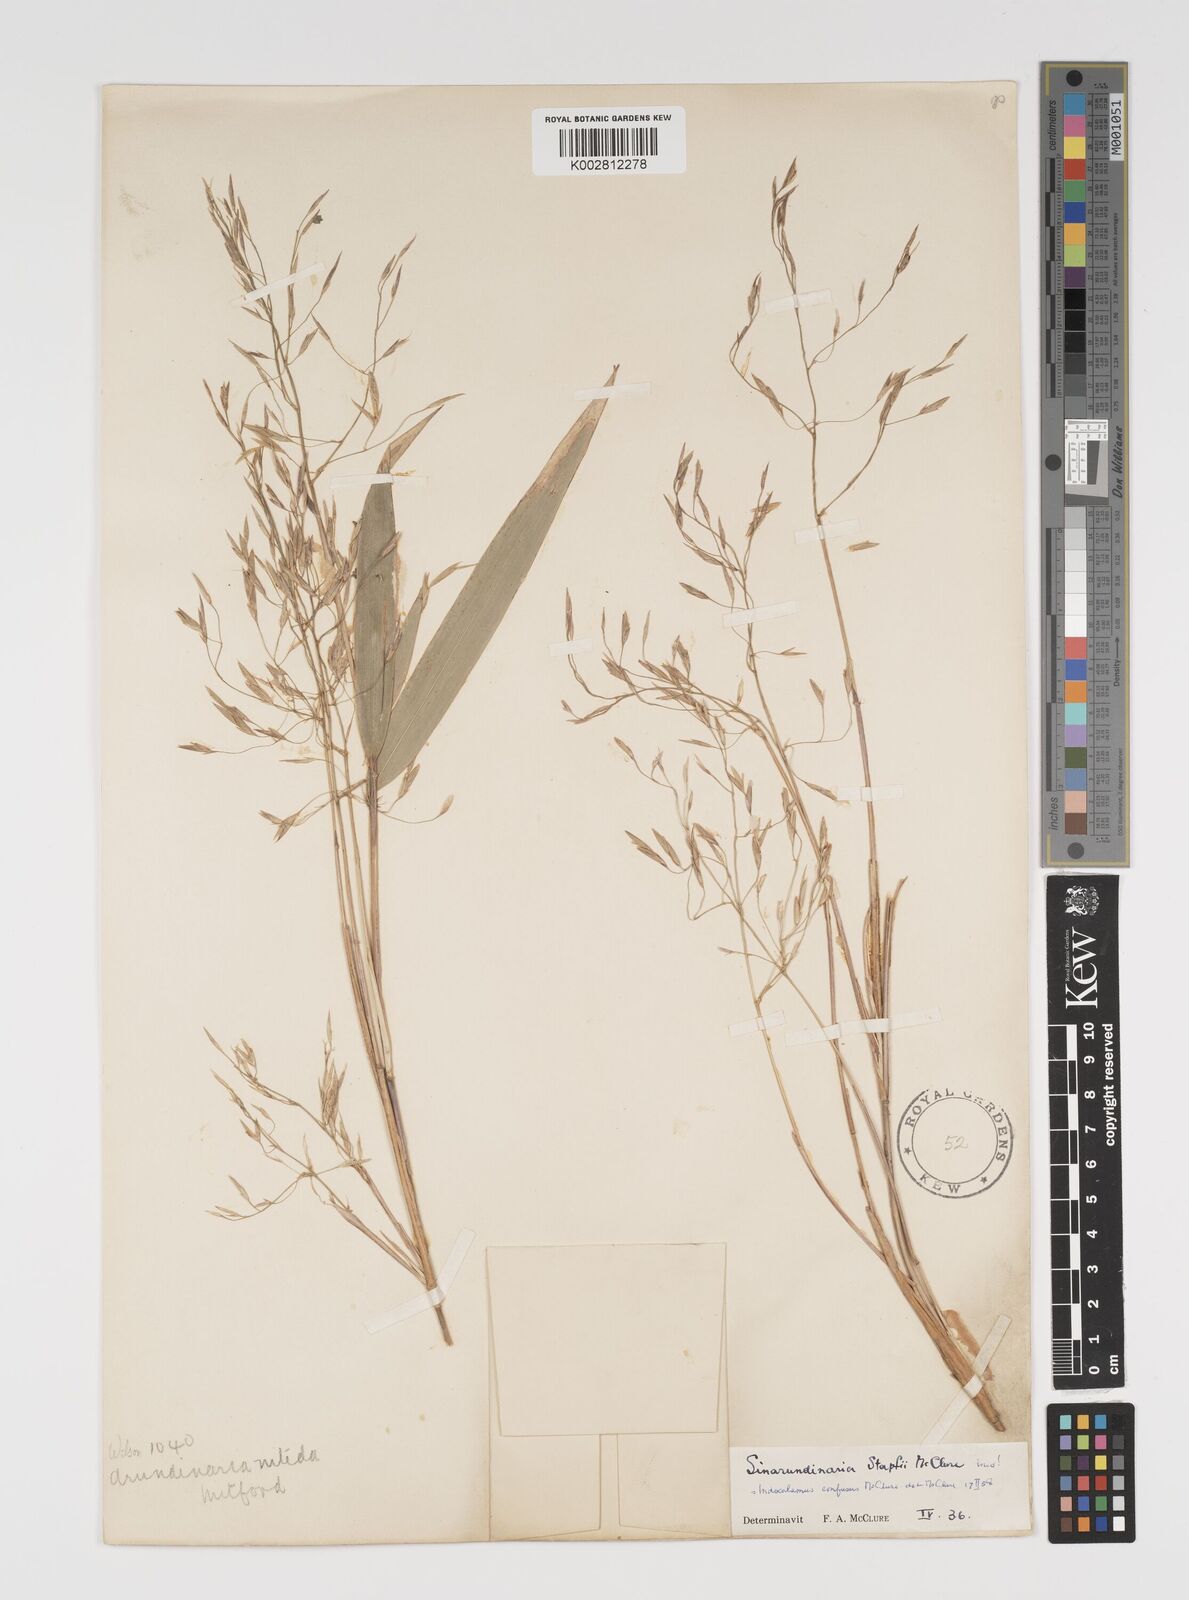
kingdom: Plantae
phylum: Tracheophyta
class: Liliopsida
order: Poales
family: Poaceae
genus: Yushania
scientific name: Yushania confusa
